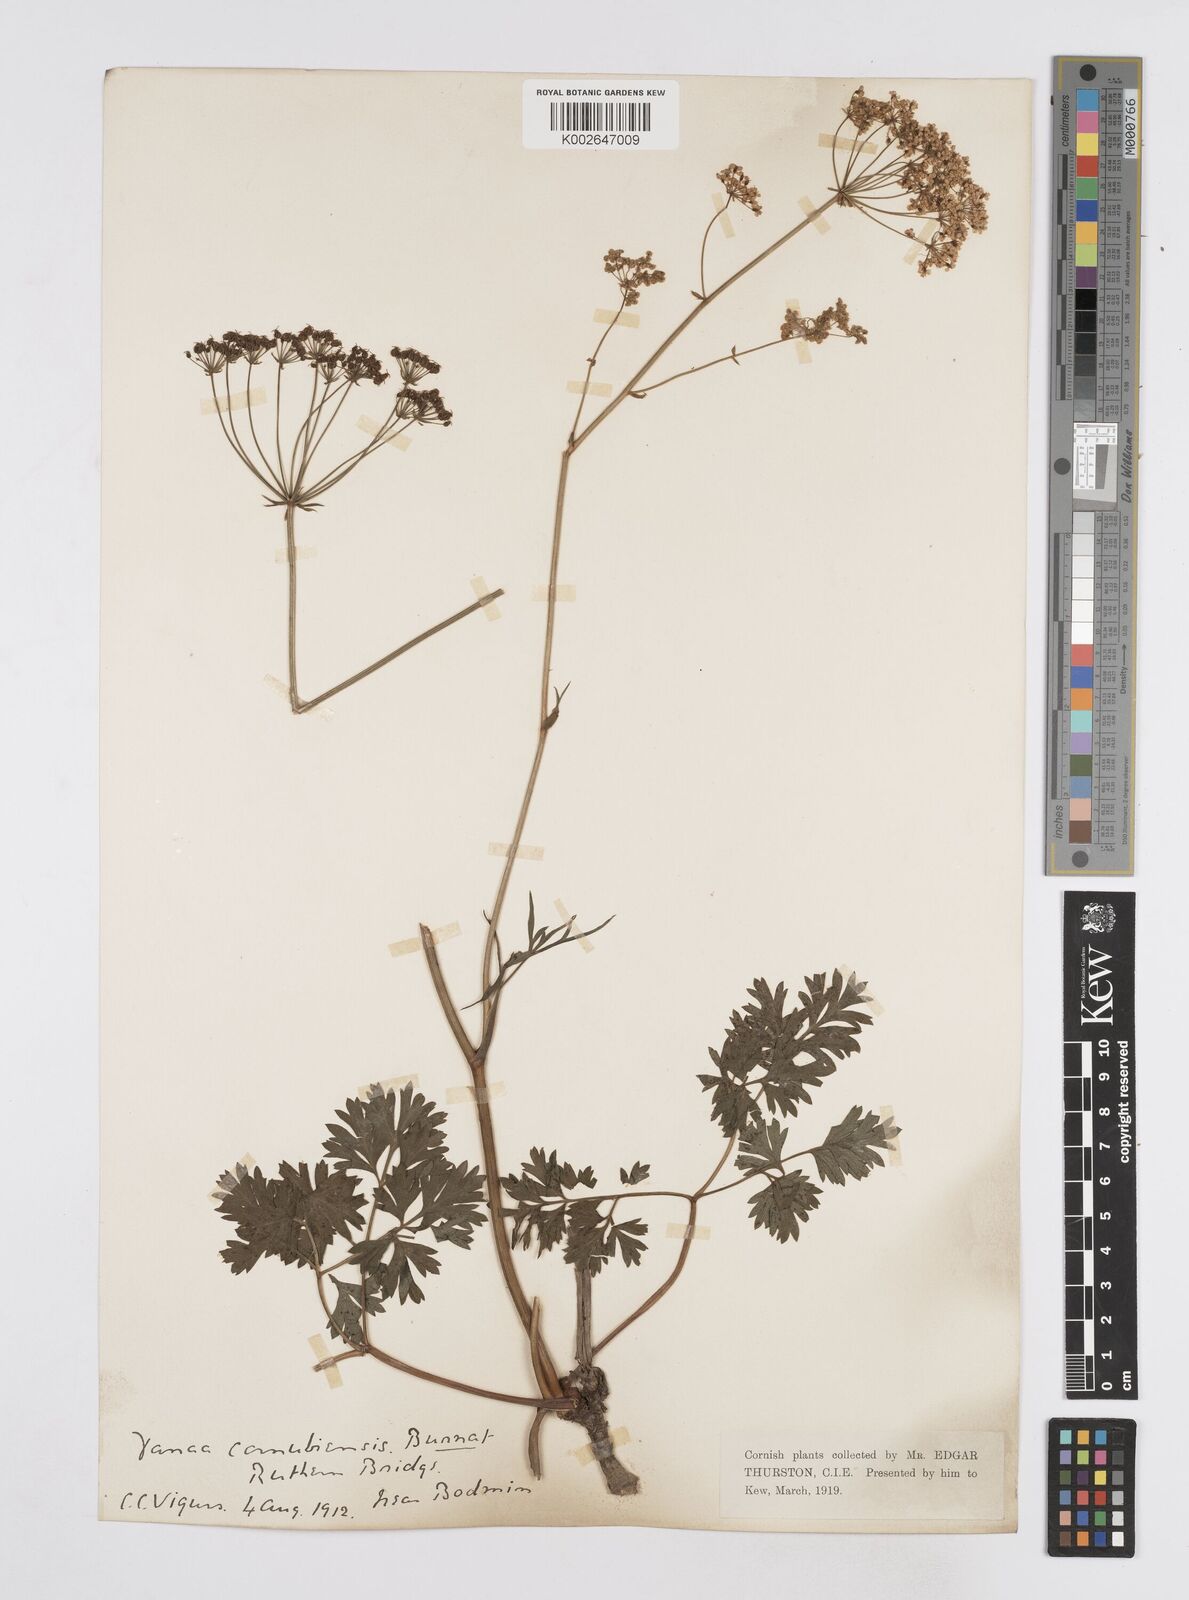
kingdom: Plantae
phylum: Tracheophyta
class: Magnoliopsida
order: Apiales
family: Apiaceae
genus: Physospermum
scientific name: Physospermum cornubiense
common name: Bladderseed
